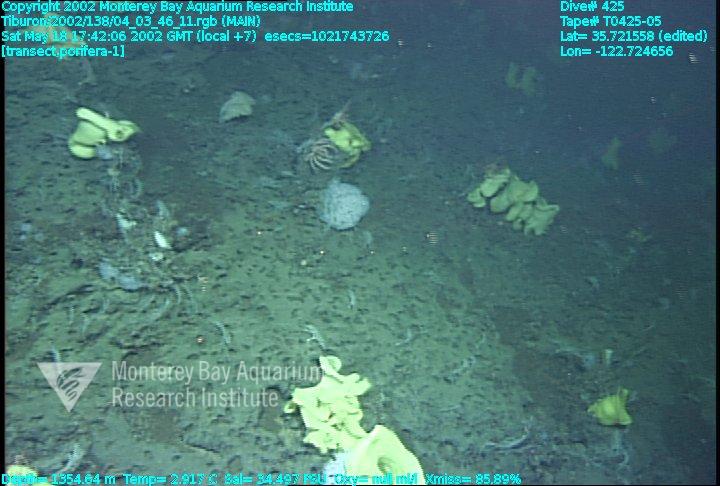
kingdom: Animalia
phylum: Porifera
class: Hexactinellida
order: Sceptrulophora
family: Farreidae
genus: Farrea
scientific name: Farrea occa
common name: Reversed glass sponge
